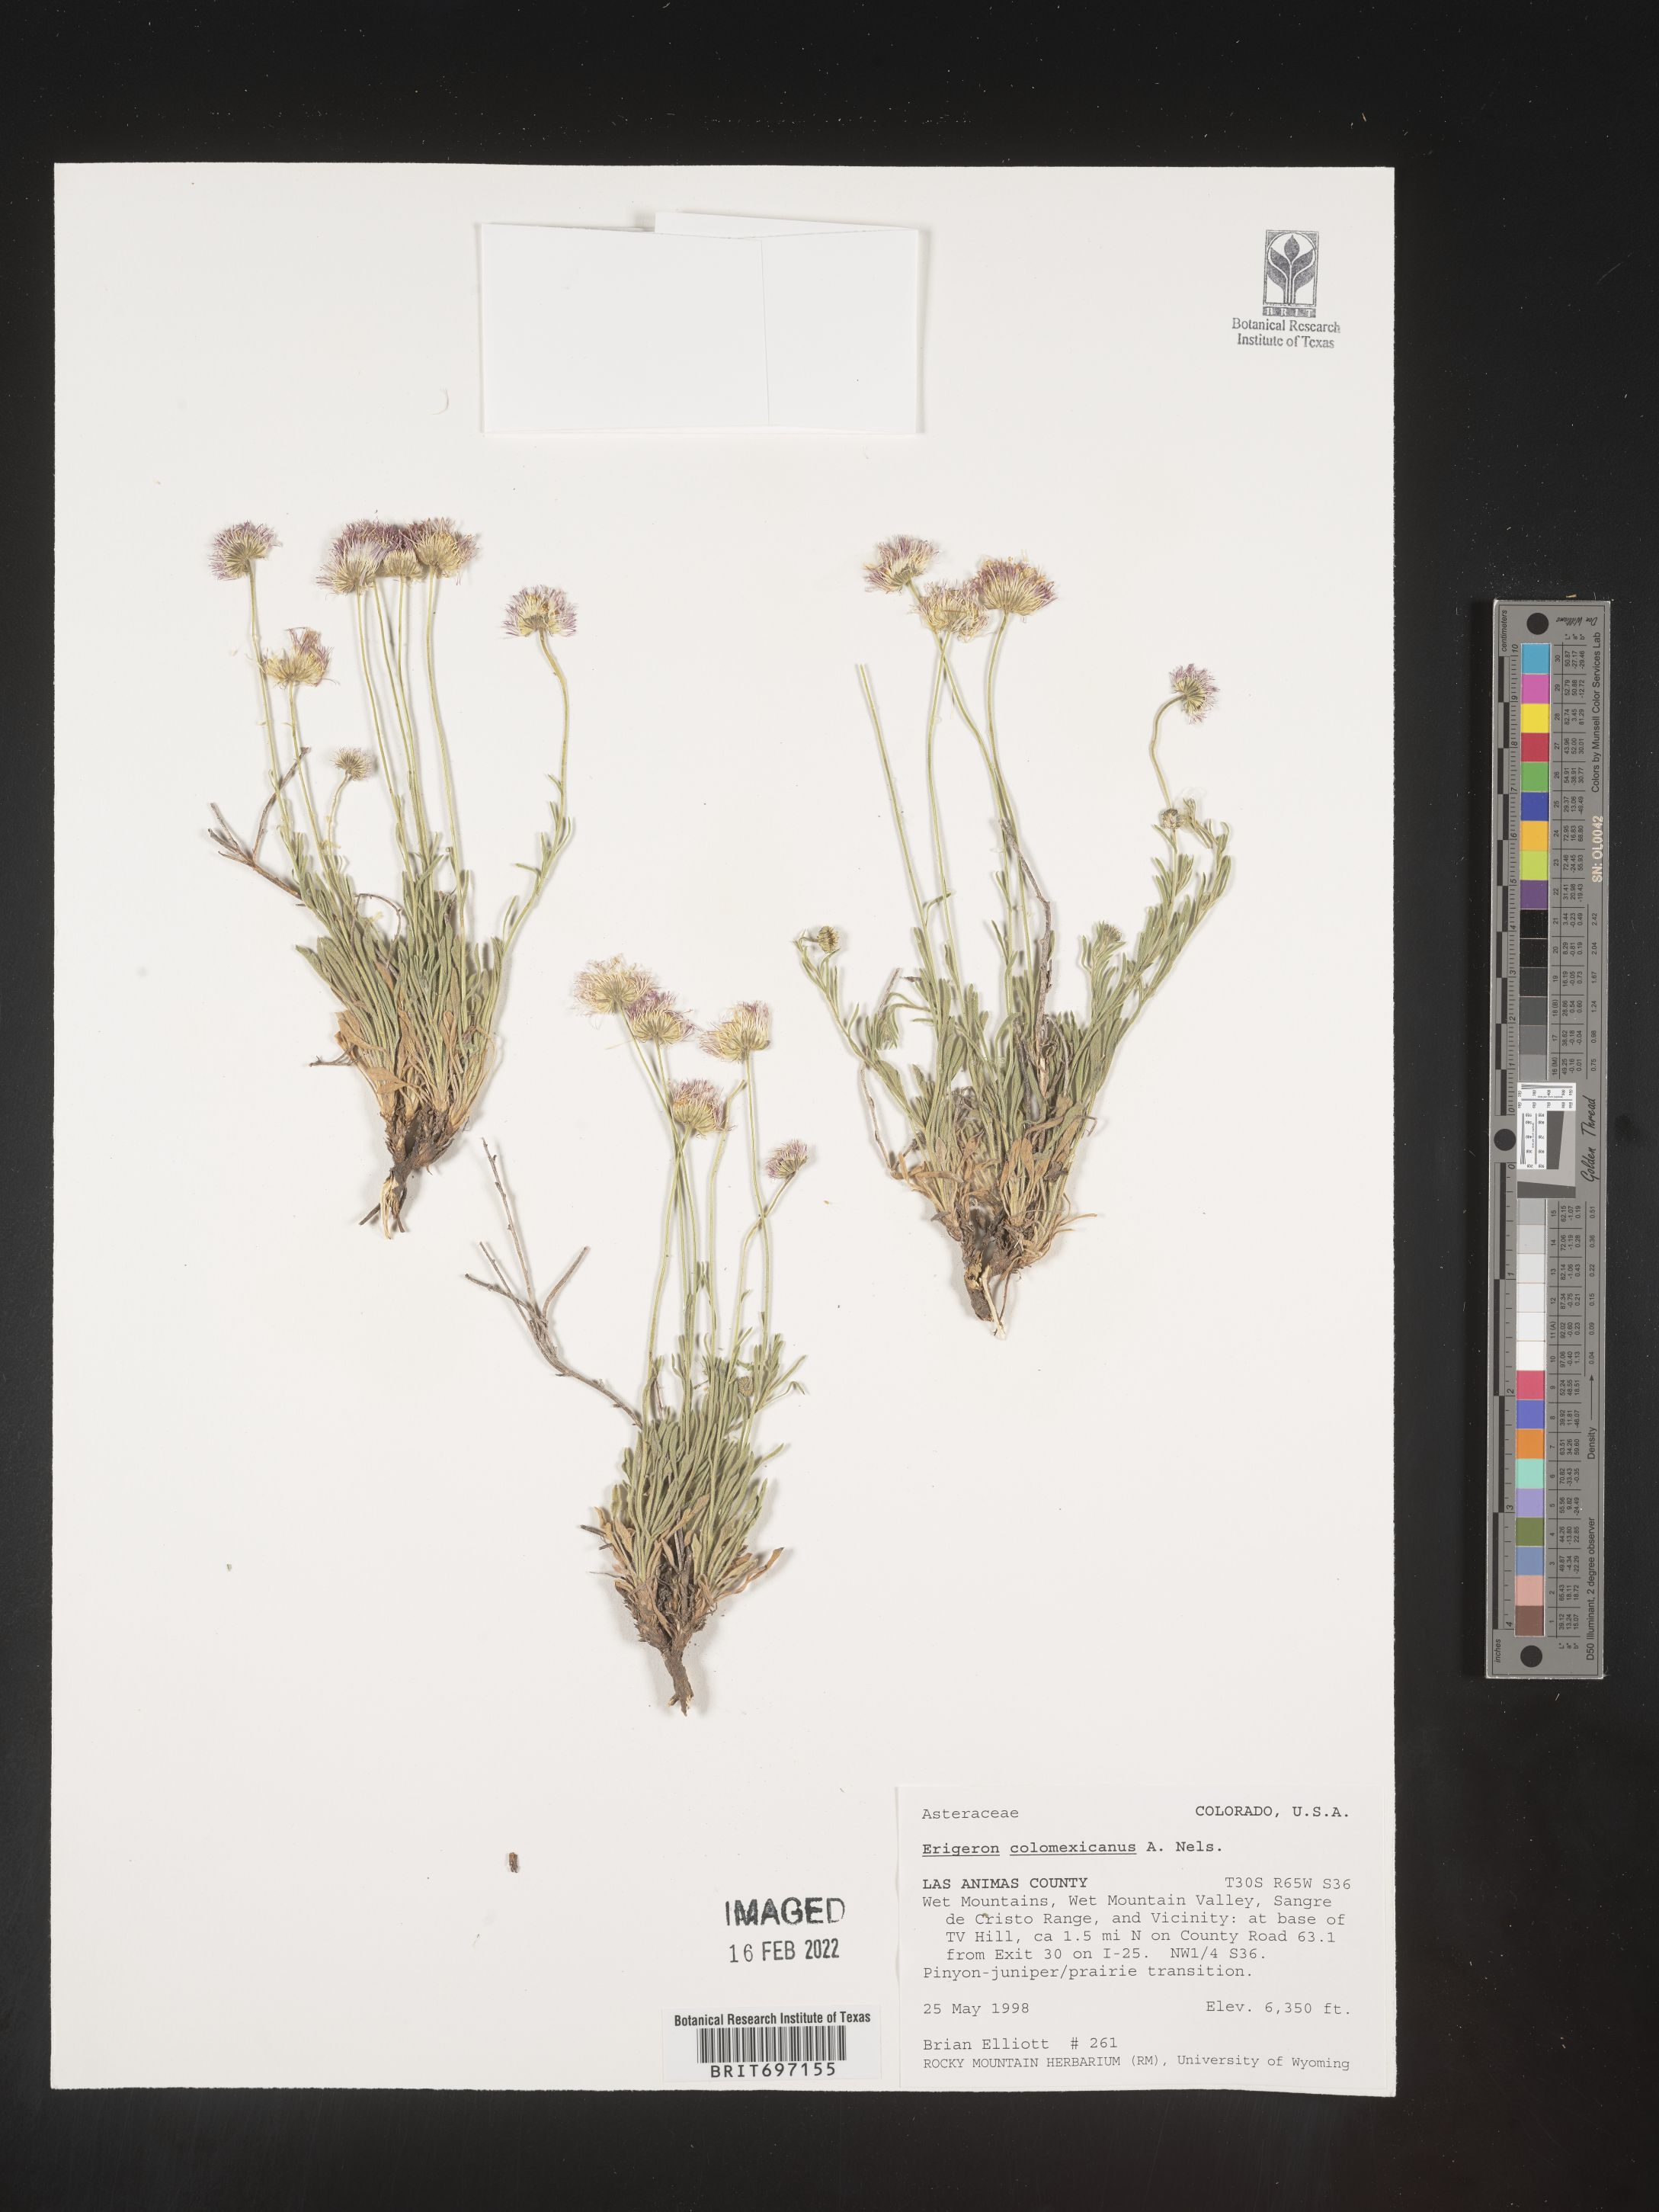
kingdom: Plantae
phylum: Tracheophyta
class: Magnoliopsida
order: Asterales
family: Asteraceae
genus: Erigeron
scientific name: Erigeron tracyi
